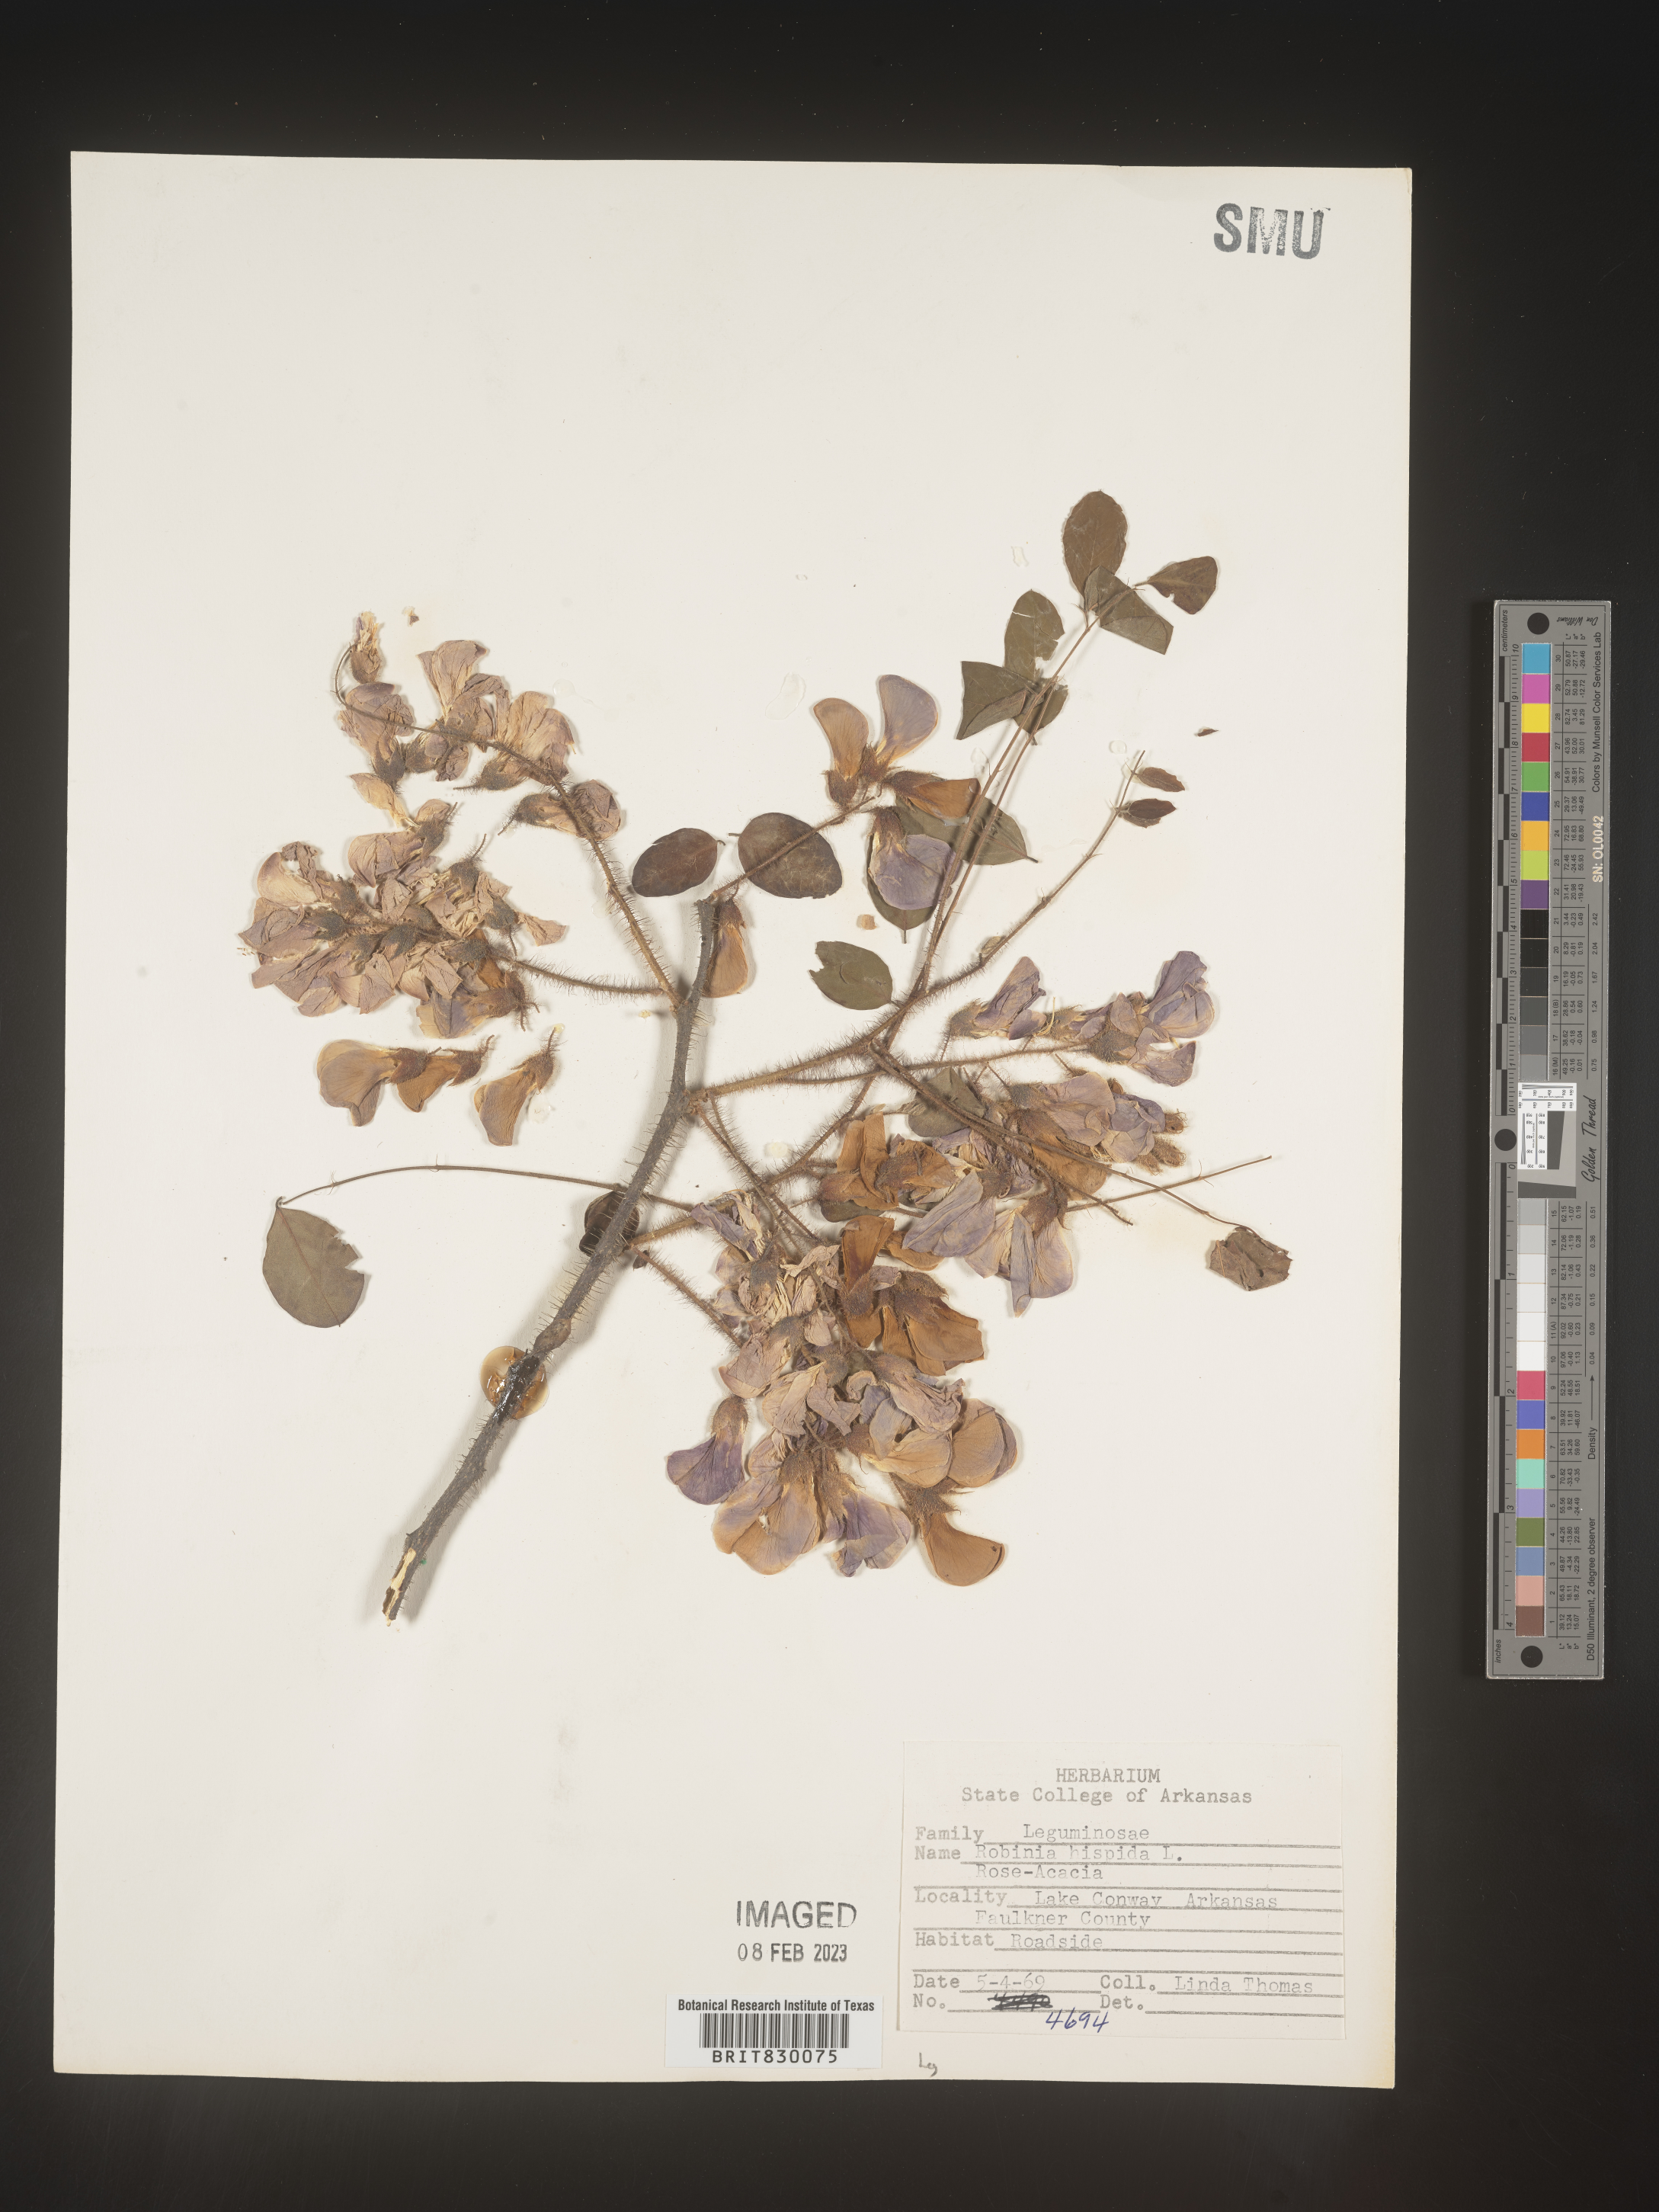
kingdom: Plantae
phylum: Tracheophyta
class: Magnoliopsida
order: Fabales
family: Fabaceae
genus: Robinia
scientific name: Robinia hispida
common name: Bristly locust
